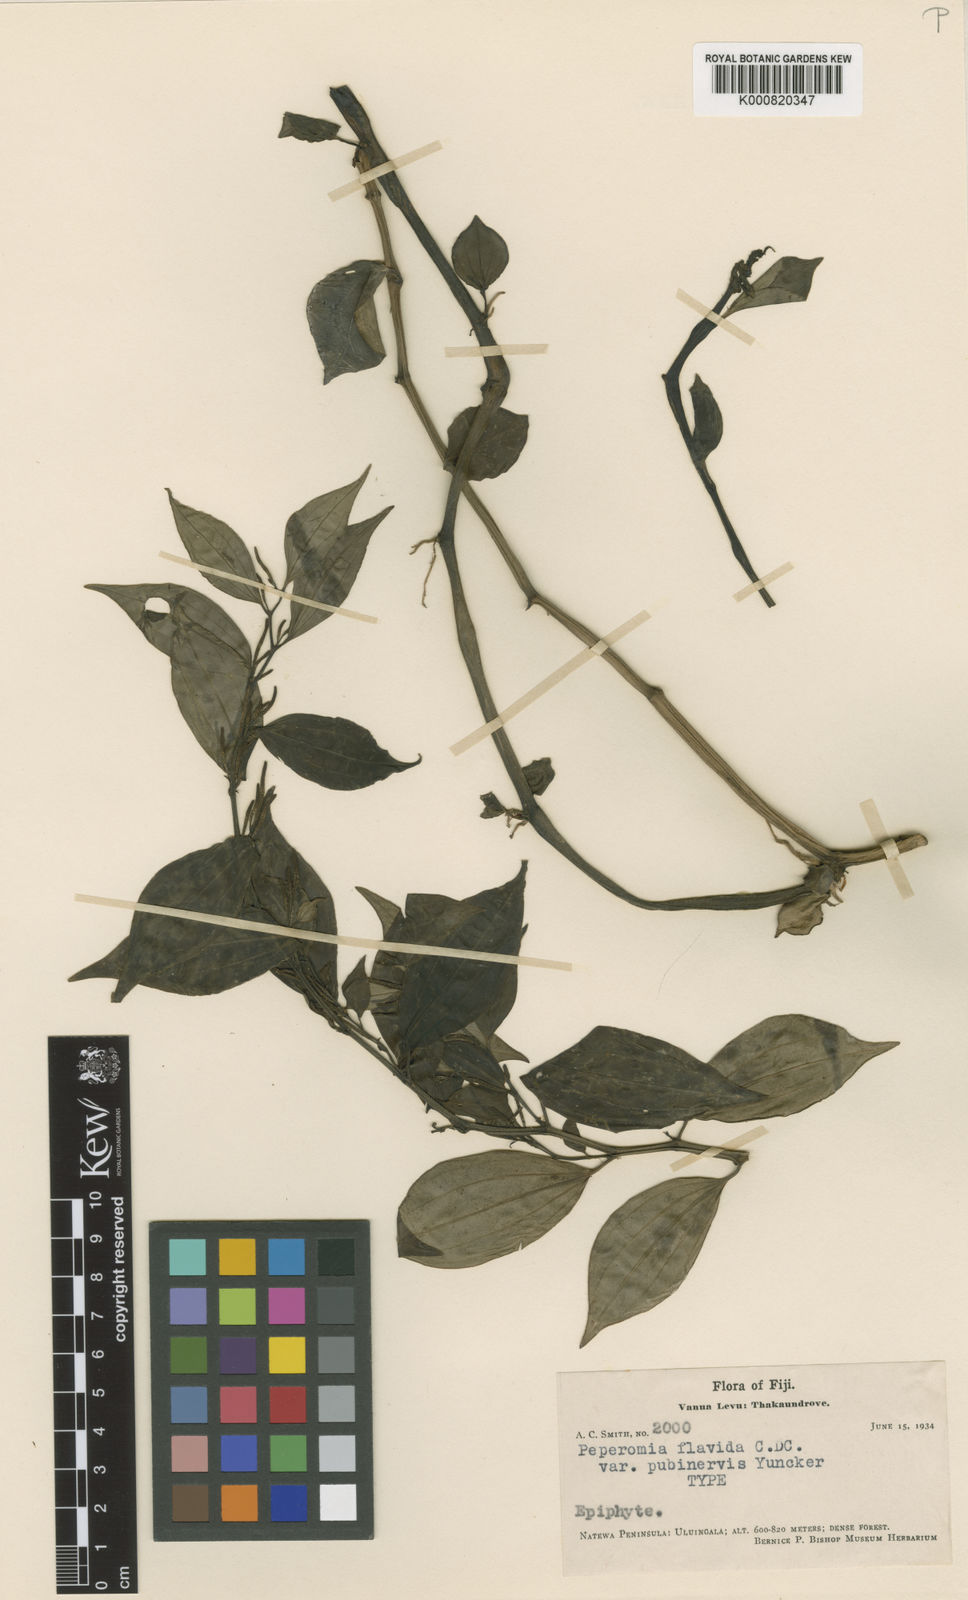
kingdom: Plantae
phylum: Tracheophyta
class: Magnoliopsida
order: Piperales
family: Piperaceae
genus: Peperomia
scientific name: Peperomia flavida
